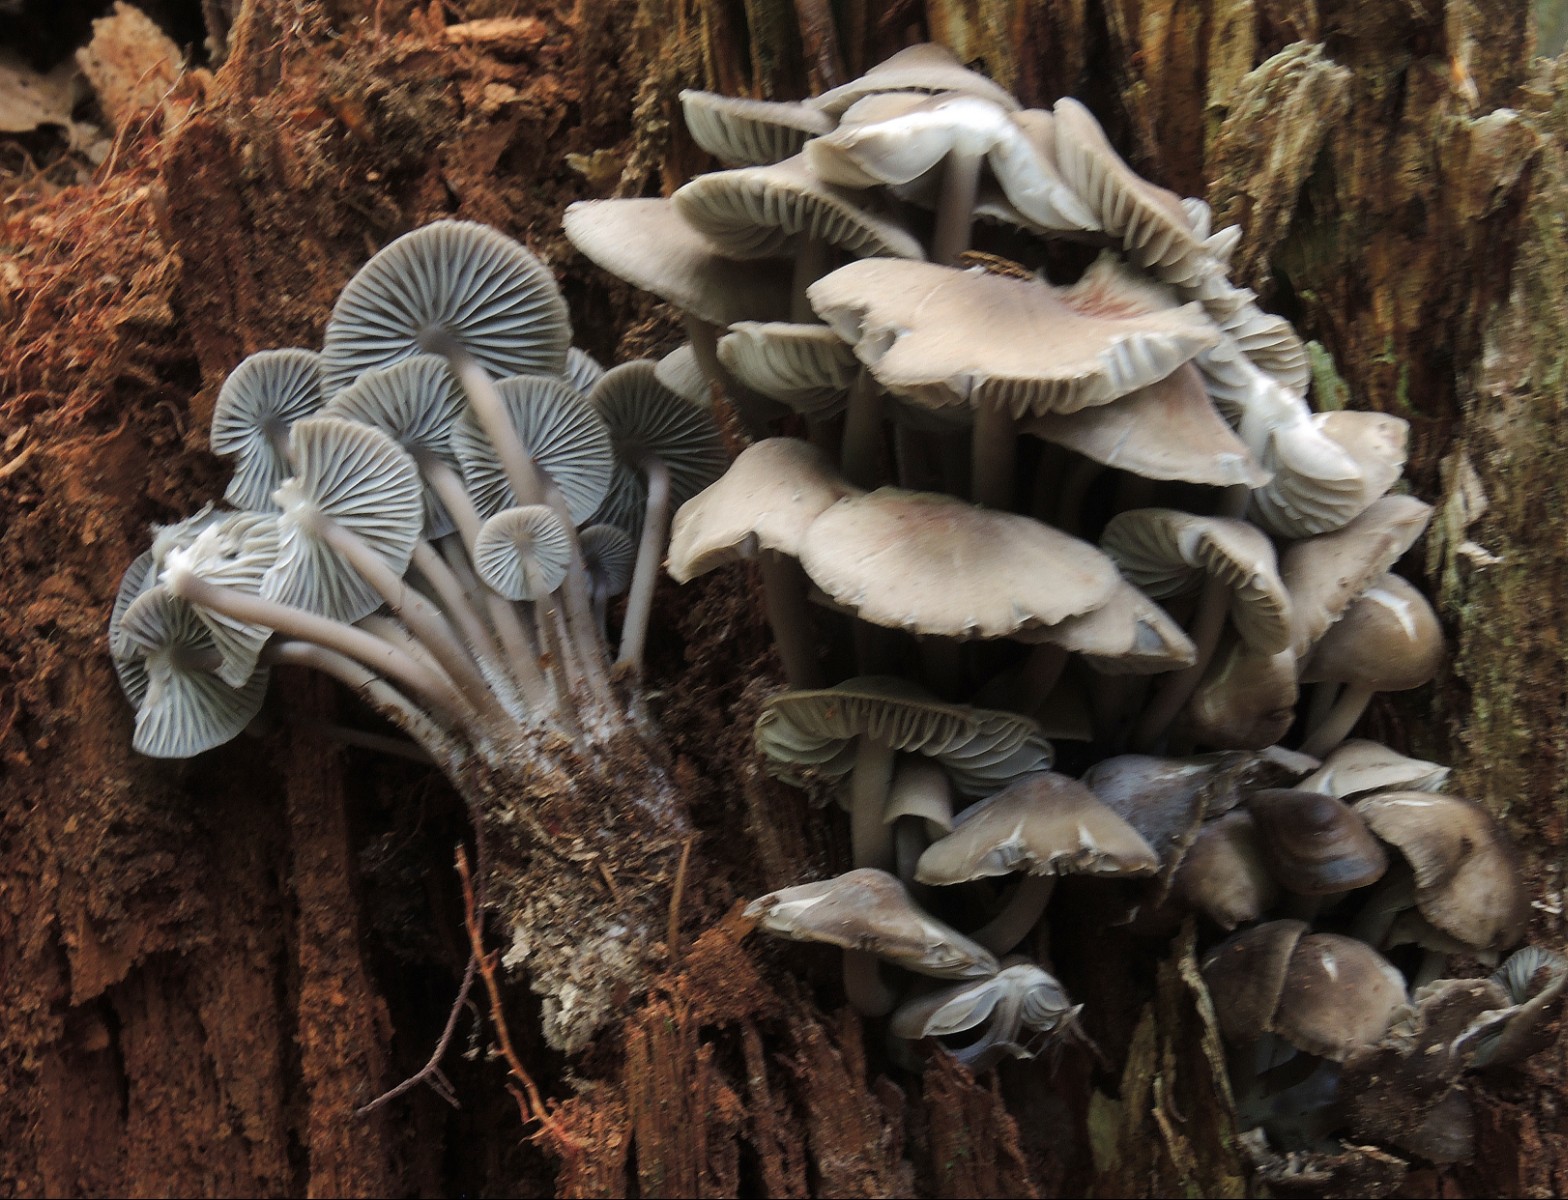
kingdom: Fungi
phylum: Basidiomycota
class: Agaricomycetes
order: Agaricales
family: Mycenaceae
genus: Mycena
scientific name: Mycena maculata
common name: rødplettet huesvamp
